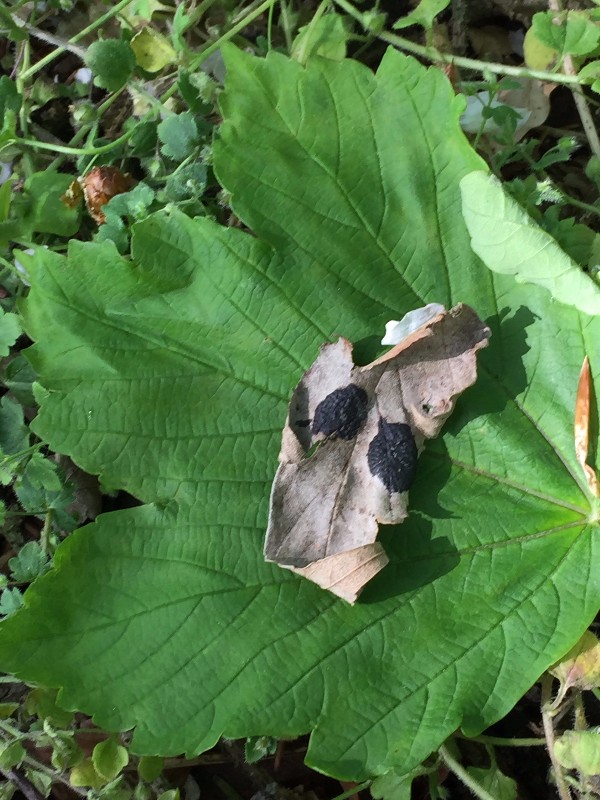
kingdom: Fungi
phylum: Ascomycota
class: Leotiomycetes
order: Rhytismatales
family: Rhytismataceae
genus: Rhytisma
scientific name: Rhytisma acerinum
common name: ahorn-rynkeplet
